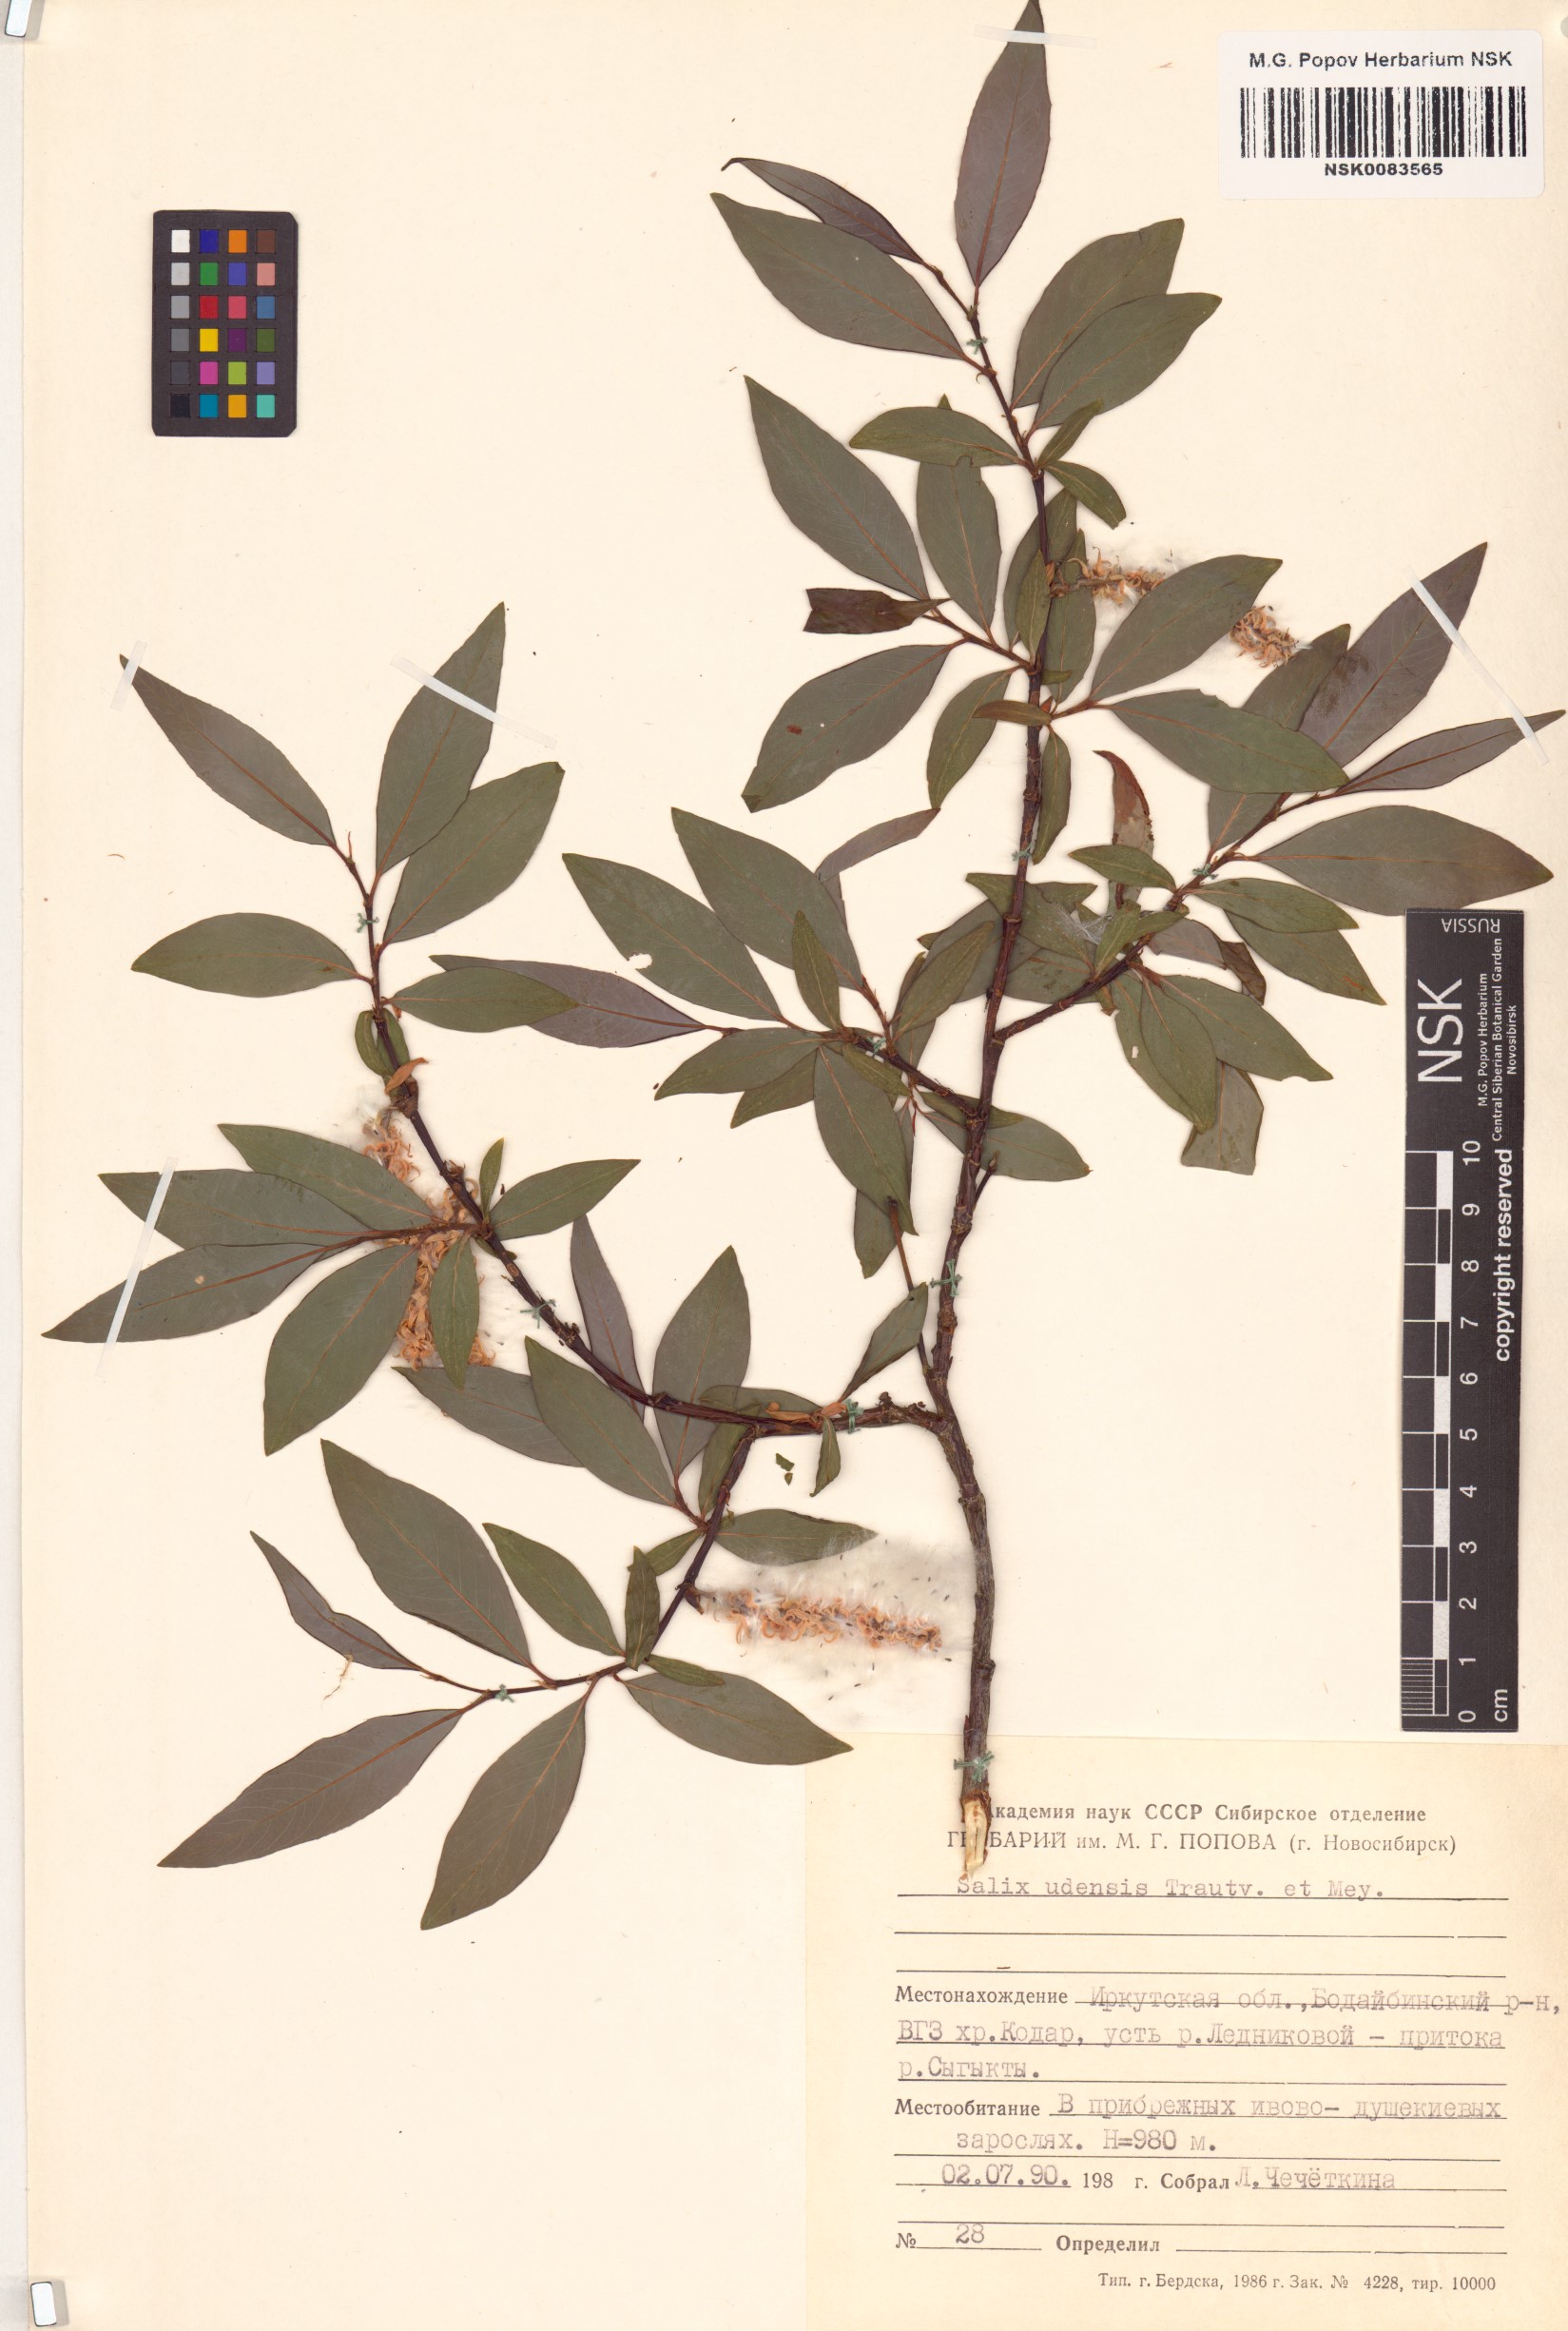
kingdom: Plantae
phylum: Tracheophyta
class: Magnoliopsida
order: Malpighiales
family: Salicaceae
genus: Salix
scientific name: Salix udensis
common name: Sachalin willow
